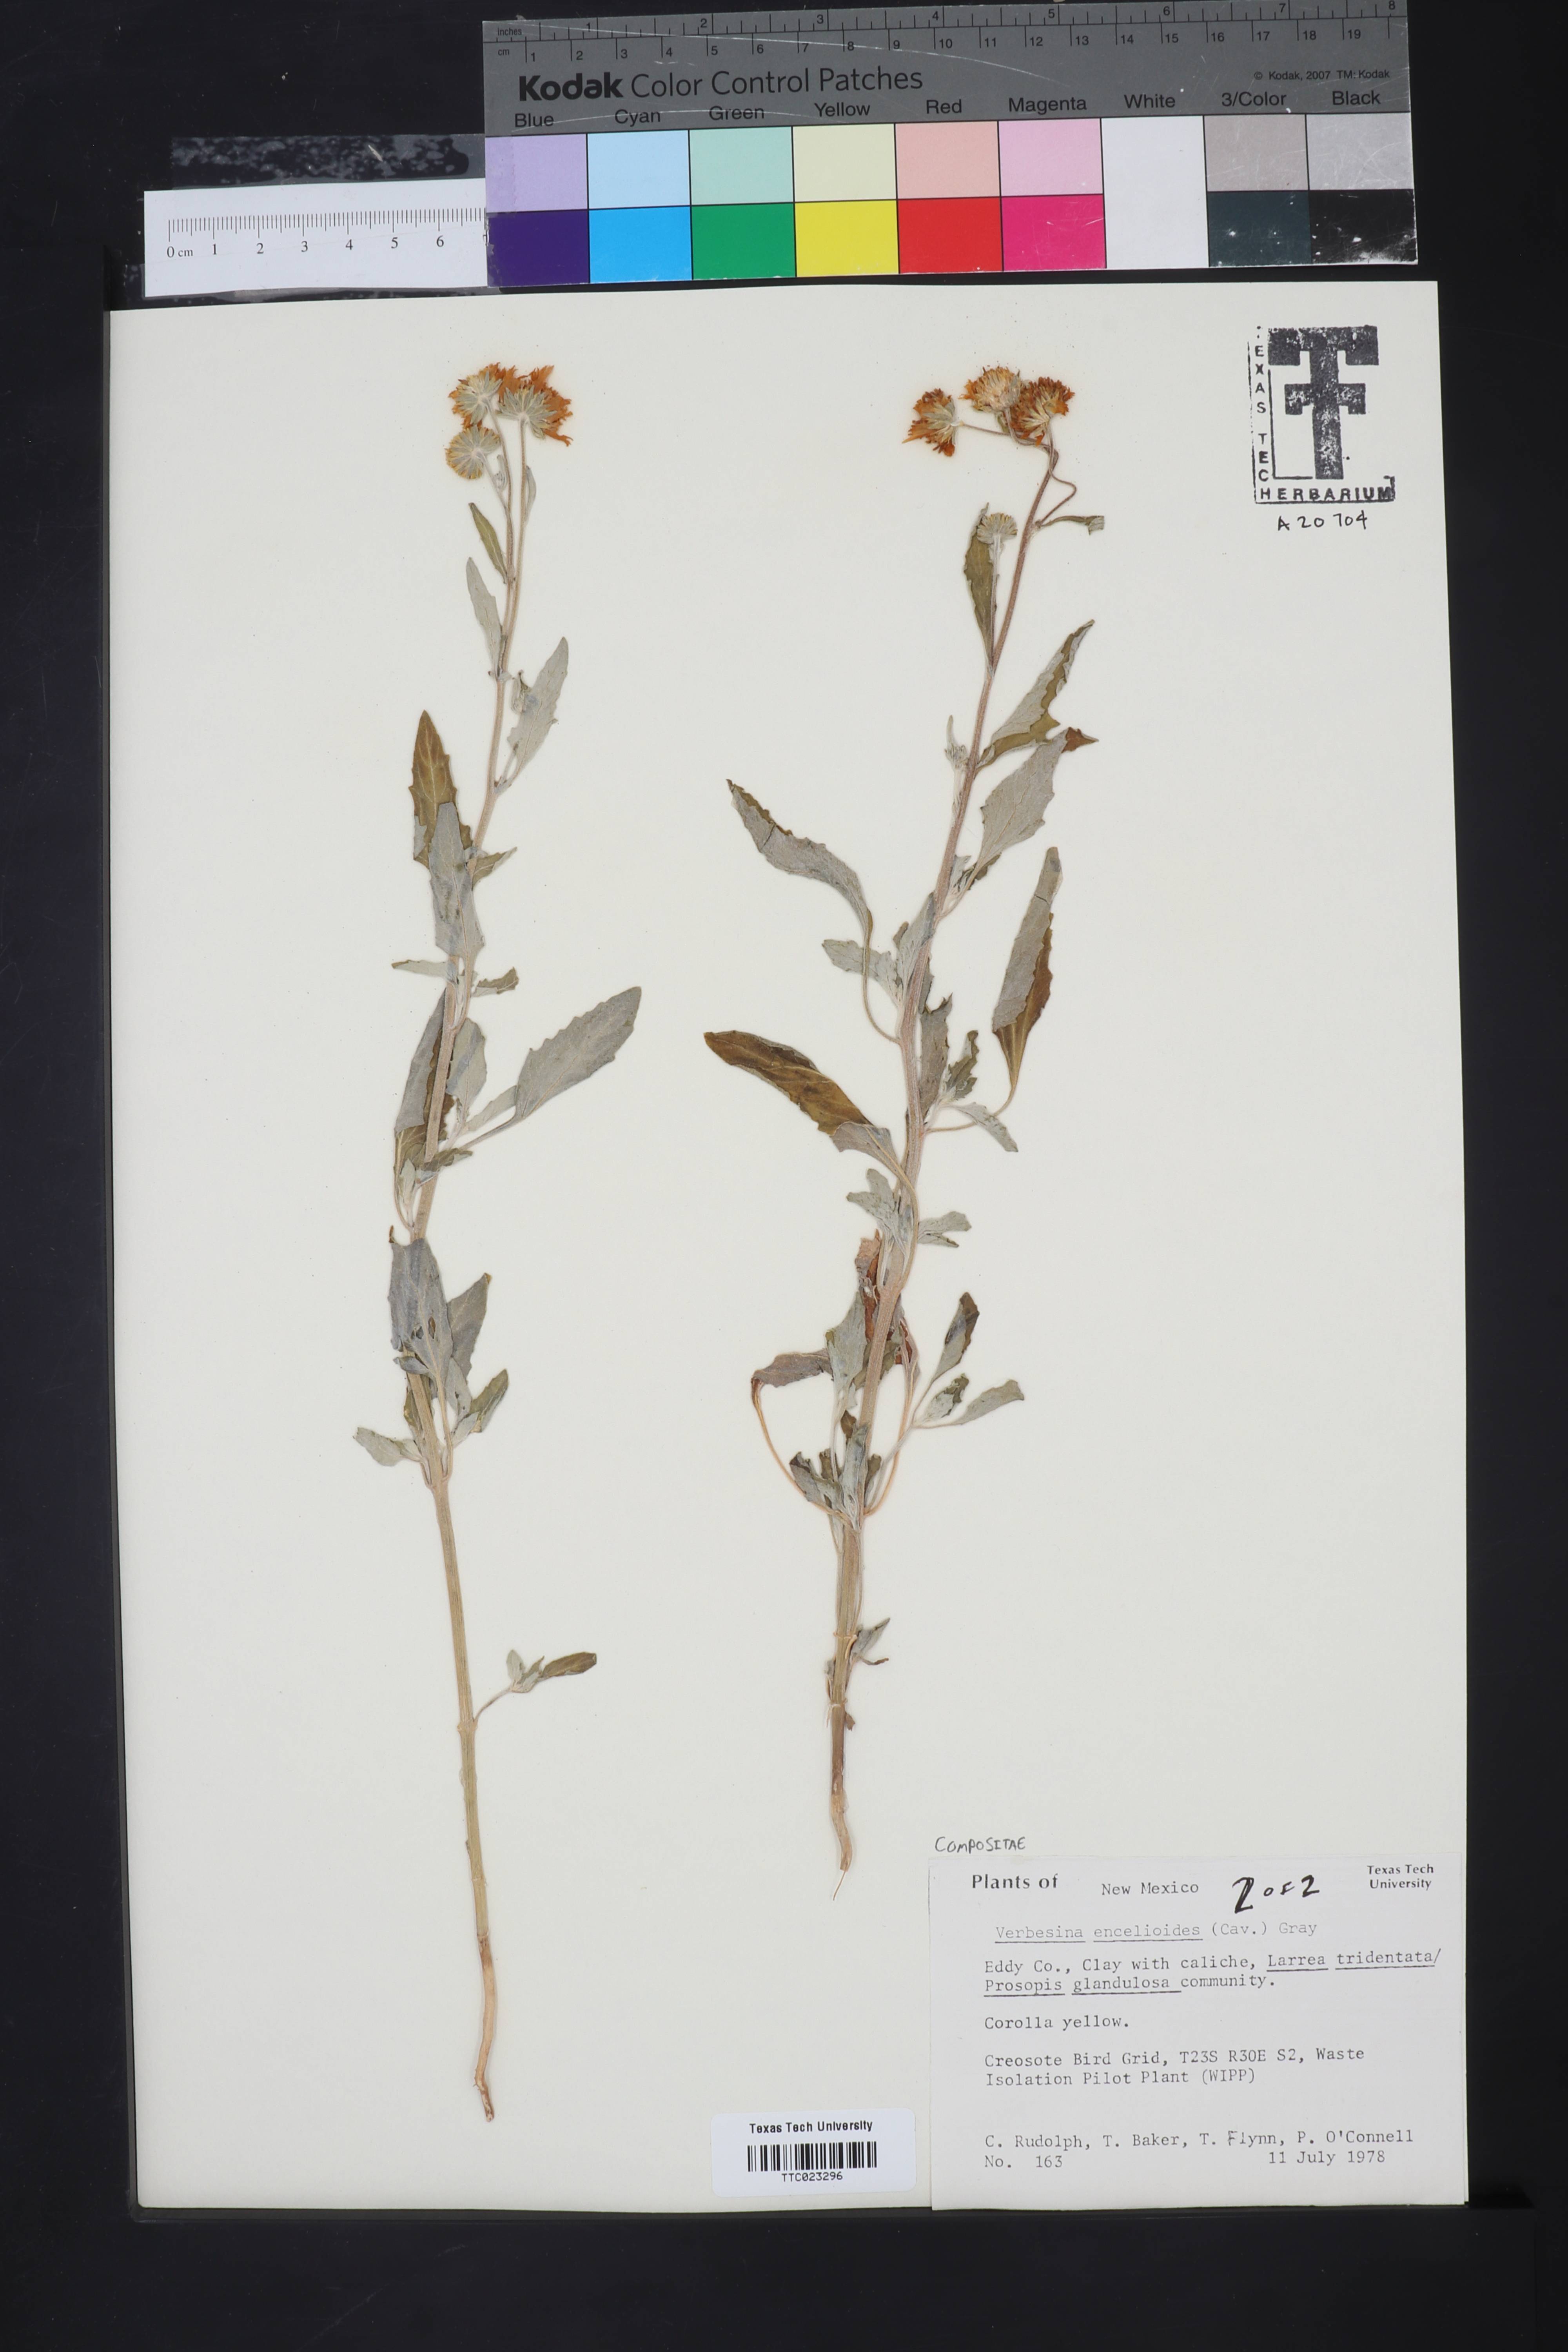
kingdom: Plantae
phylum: Tracheophyta
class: Magnoliopsida
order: Asterales
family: Asteraceae
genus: Verbesina
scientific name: Verbesina encelioides
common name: Golden crownbeard
